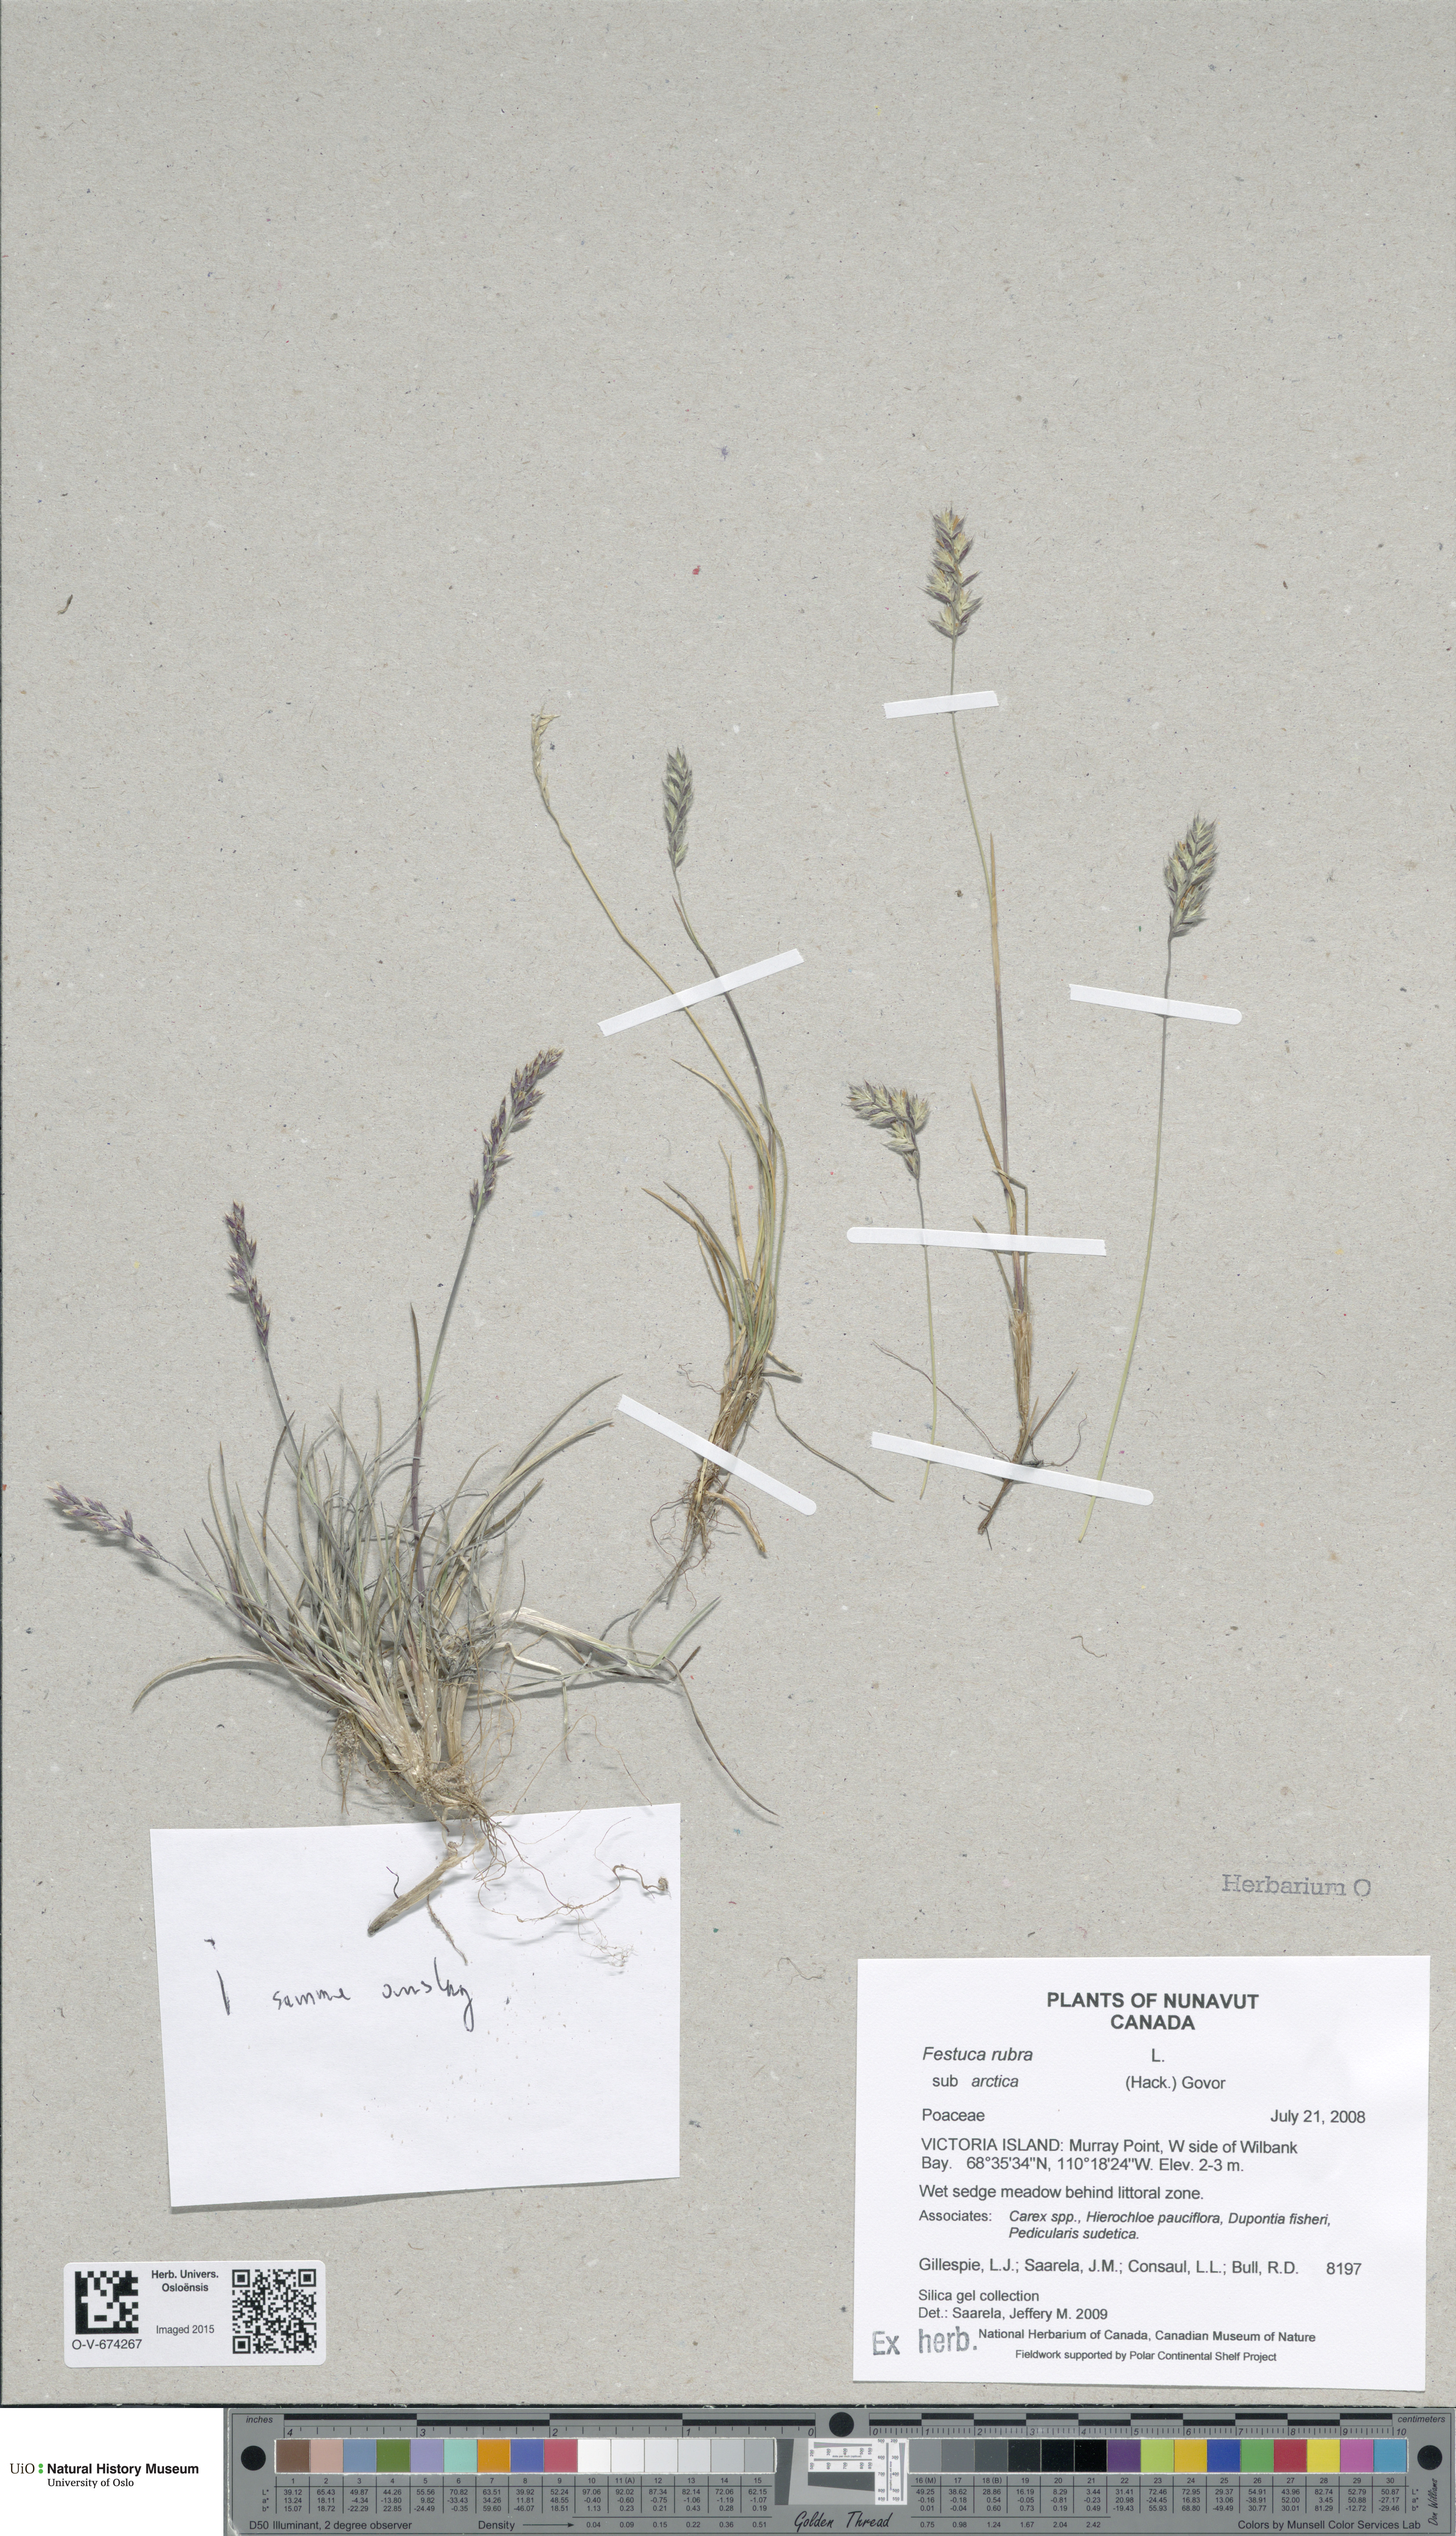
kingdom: Plantae
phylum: Tracheophyta
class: Liliopsida
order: Poales
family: Poaceae
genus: Festuca
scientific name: Festuca richardsonii
